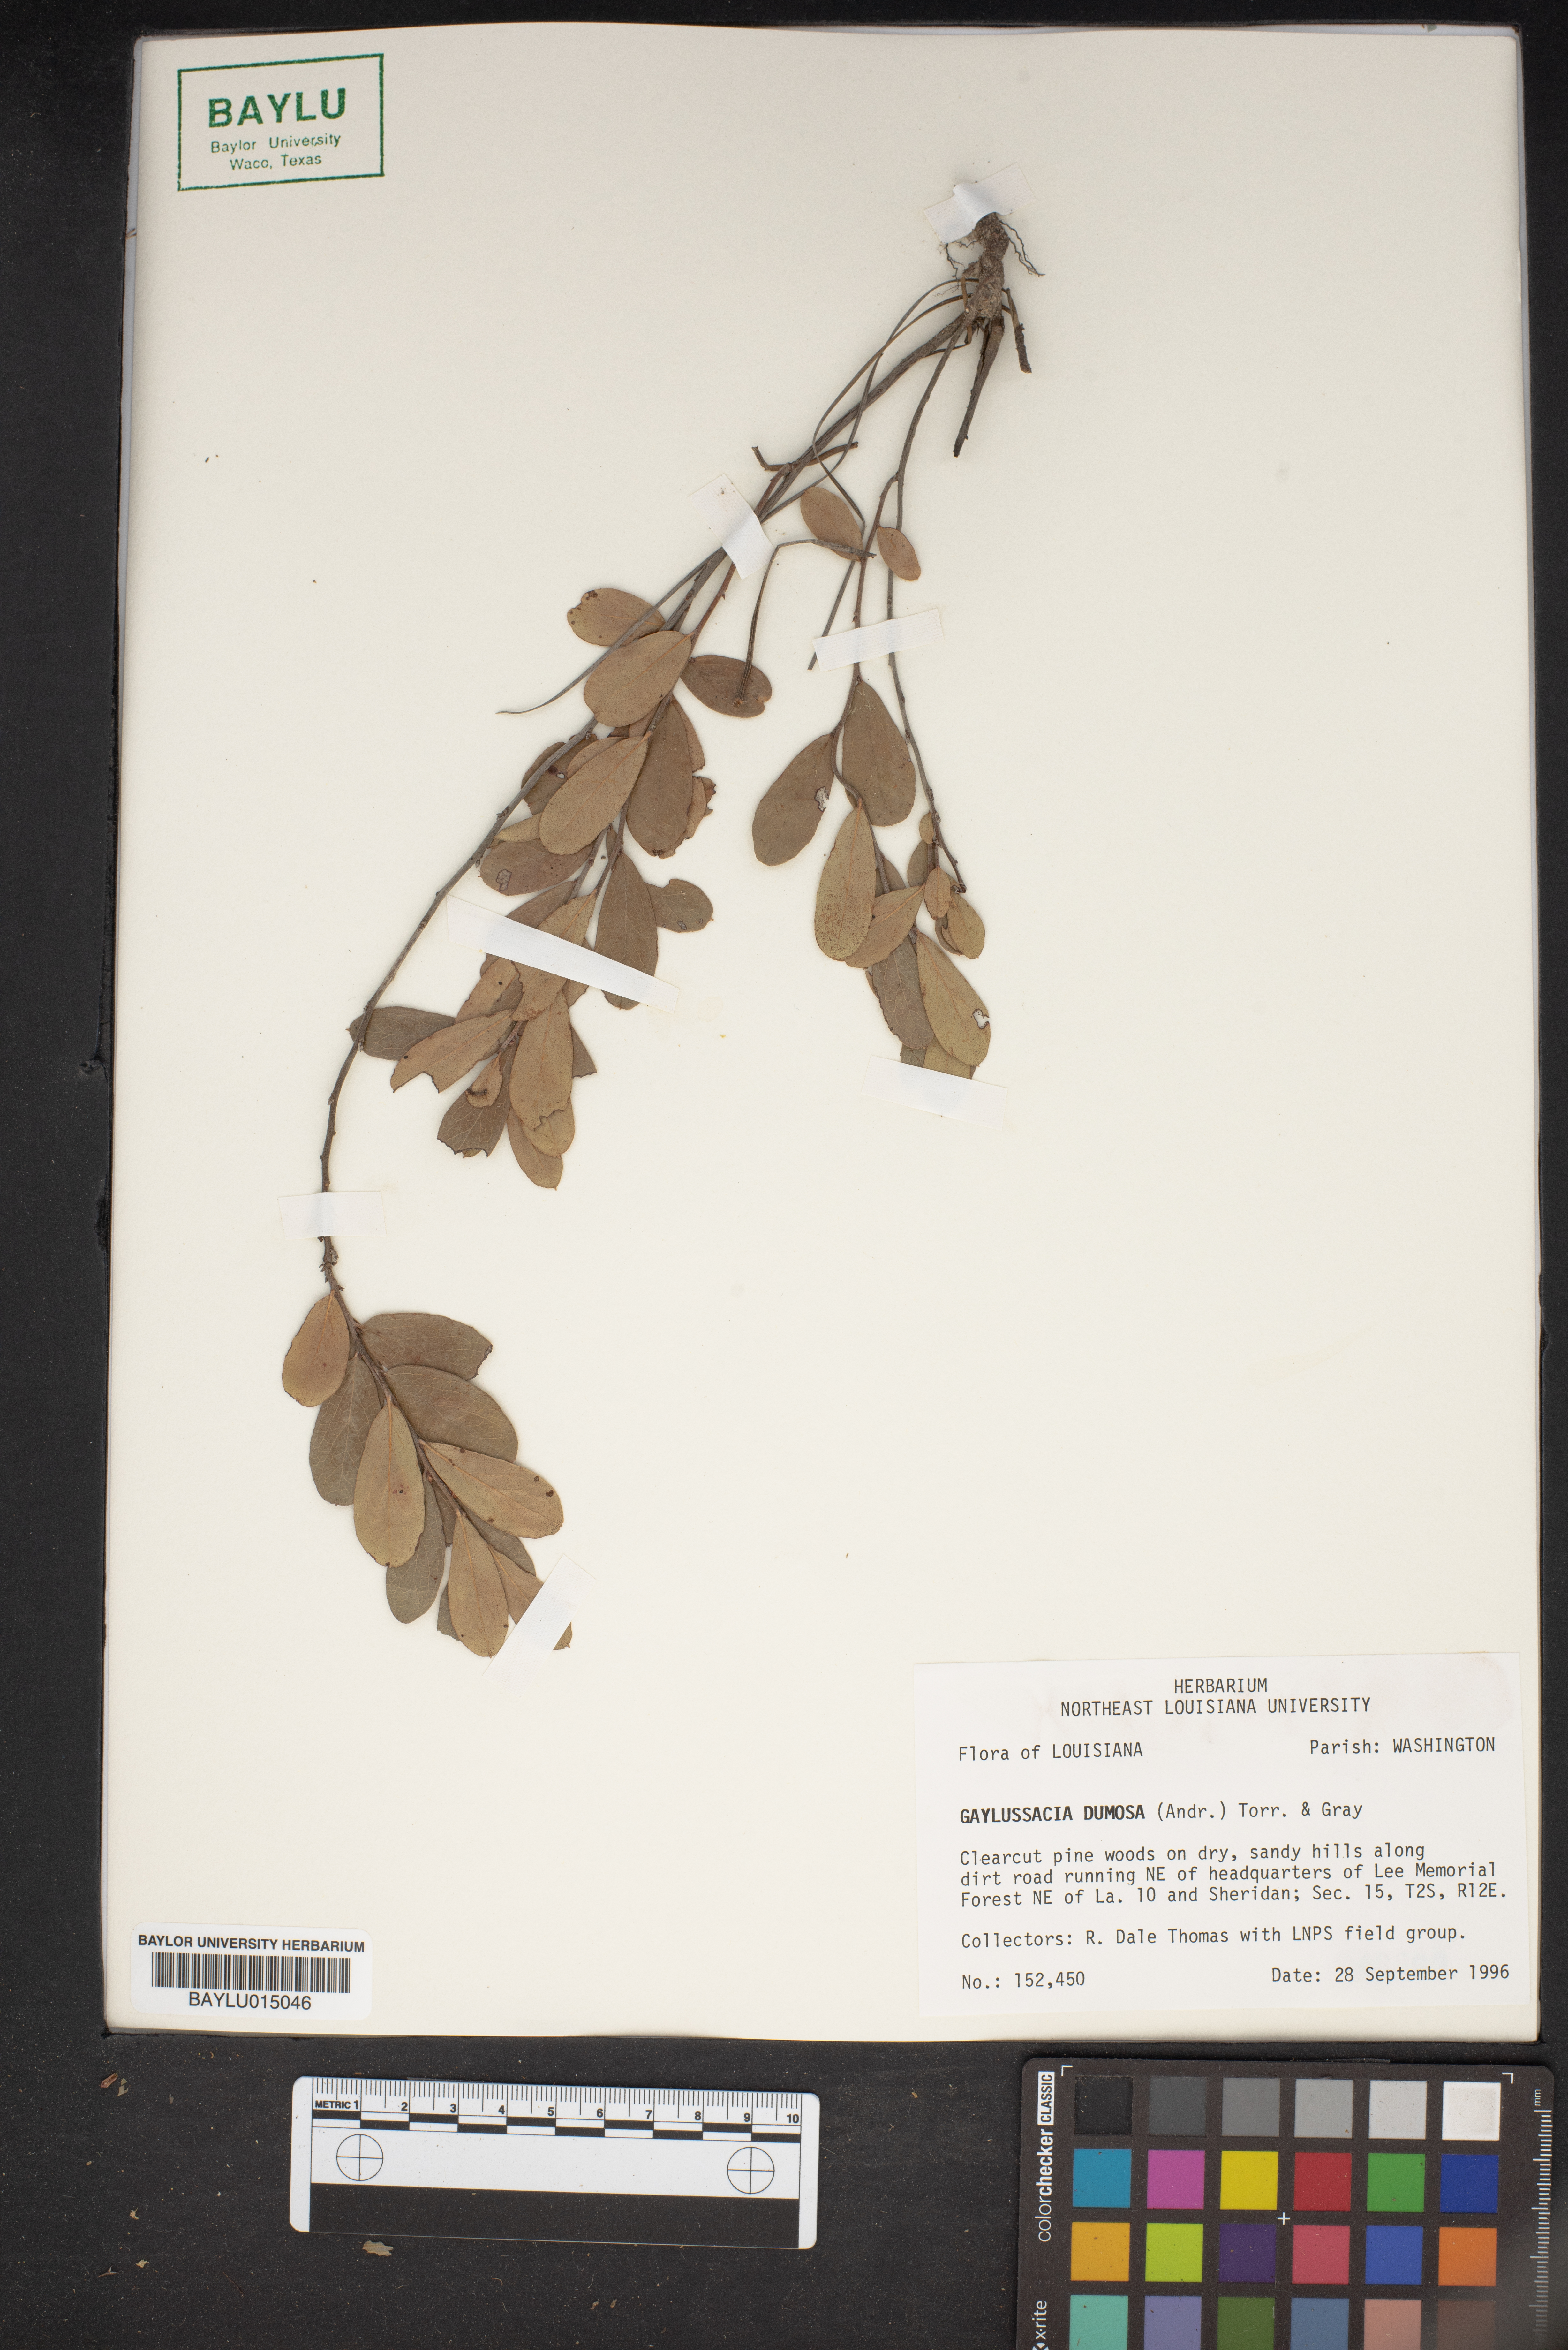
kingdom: Plantae
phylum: Tracheophyta
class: Magnoliopsida
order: Ericales
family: Ericaceae
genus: Gaylussacia
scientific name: Gaylussacia dumosa
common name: Dwarf huckleberry
